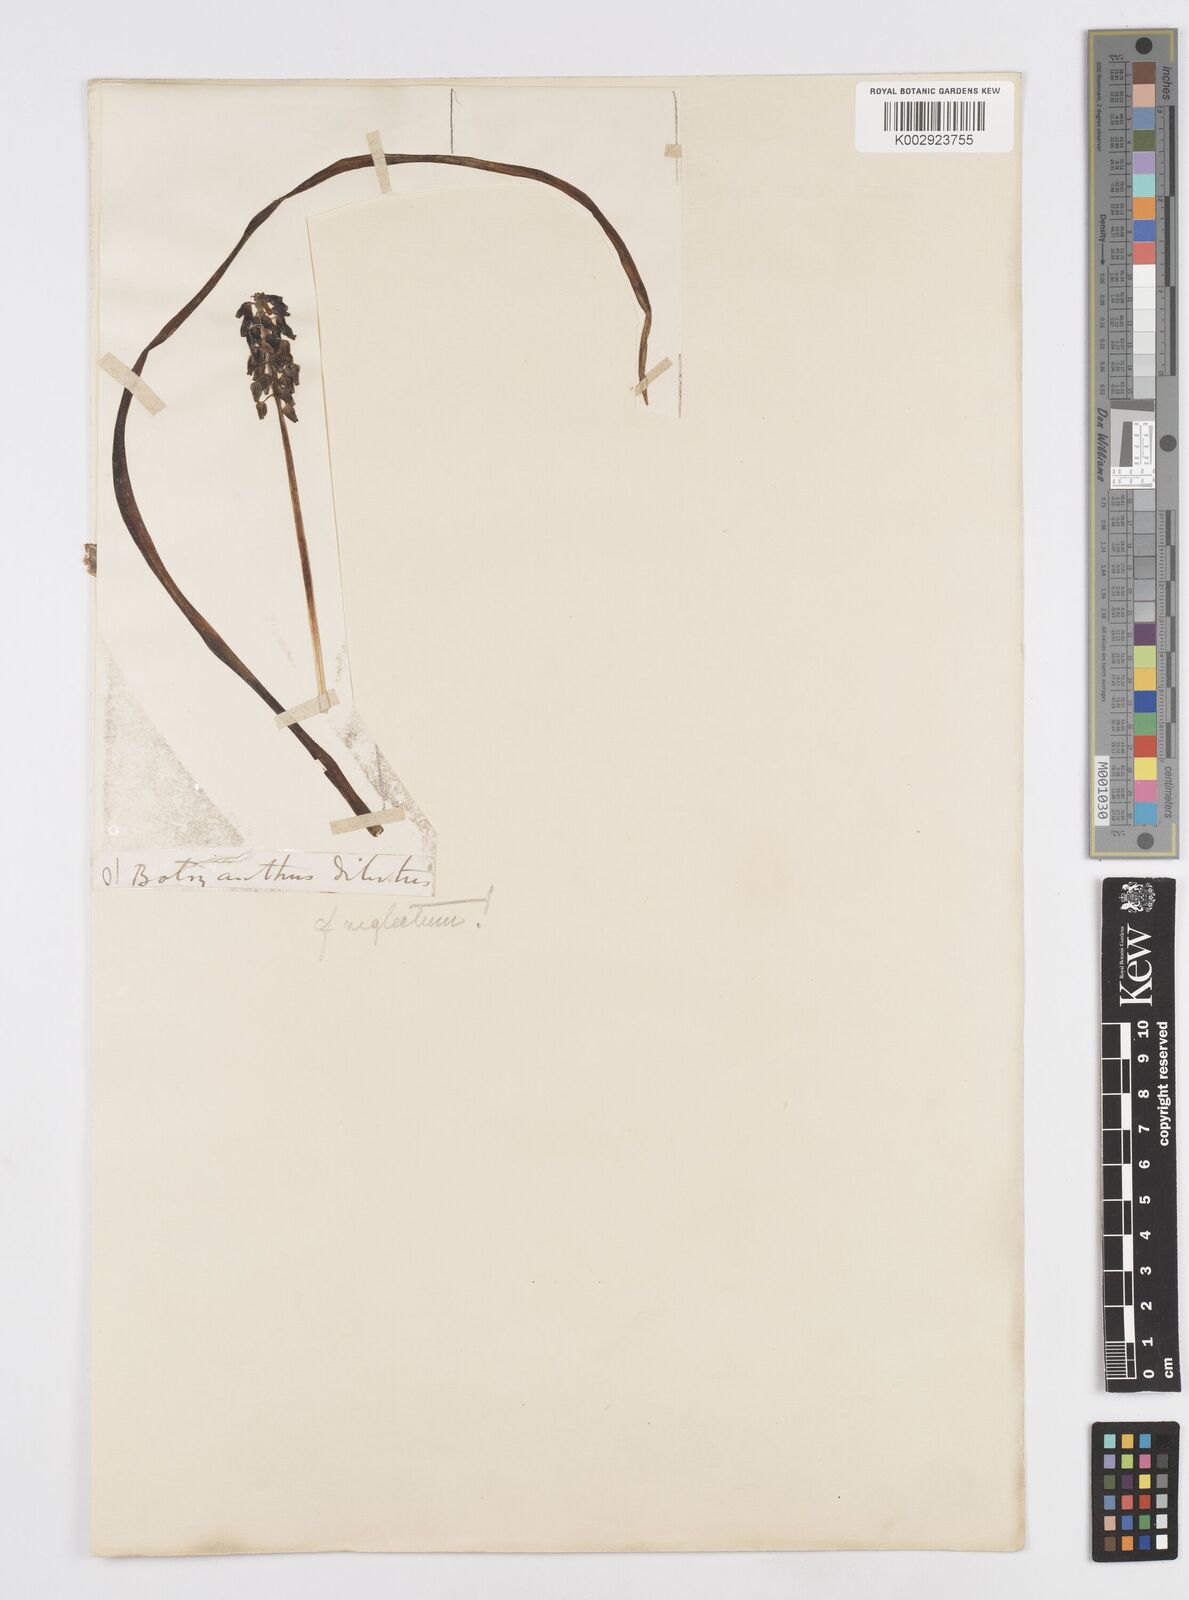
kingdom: Plantae
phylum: Tracheophyta
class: Liliopsida
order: Asparagales
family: Asparagaceae
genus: Muscari
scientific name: Muscari neglectum
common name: Grape-hyacinth
